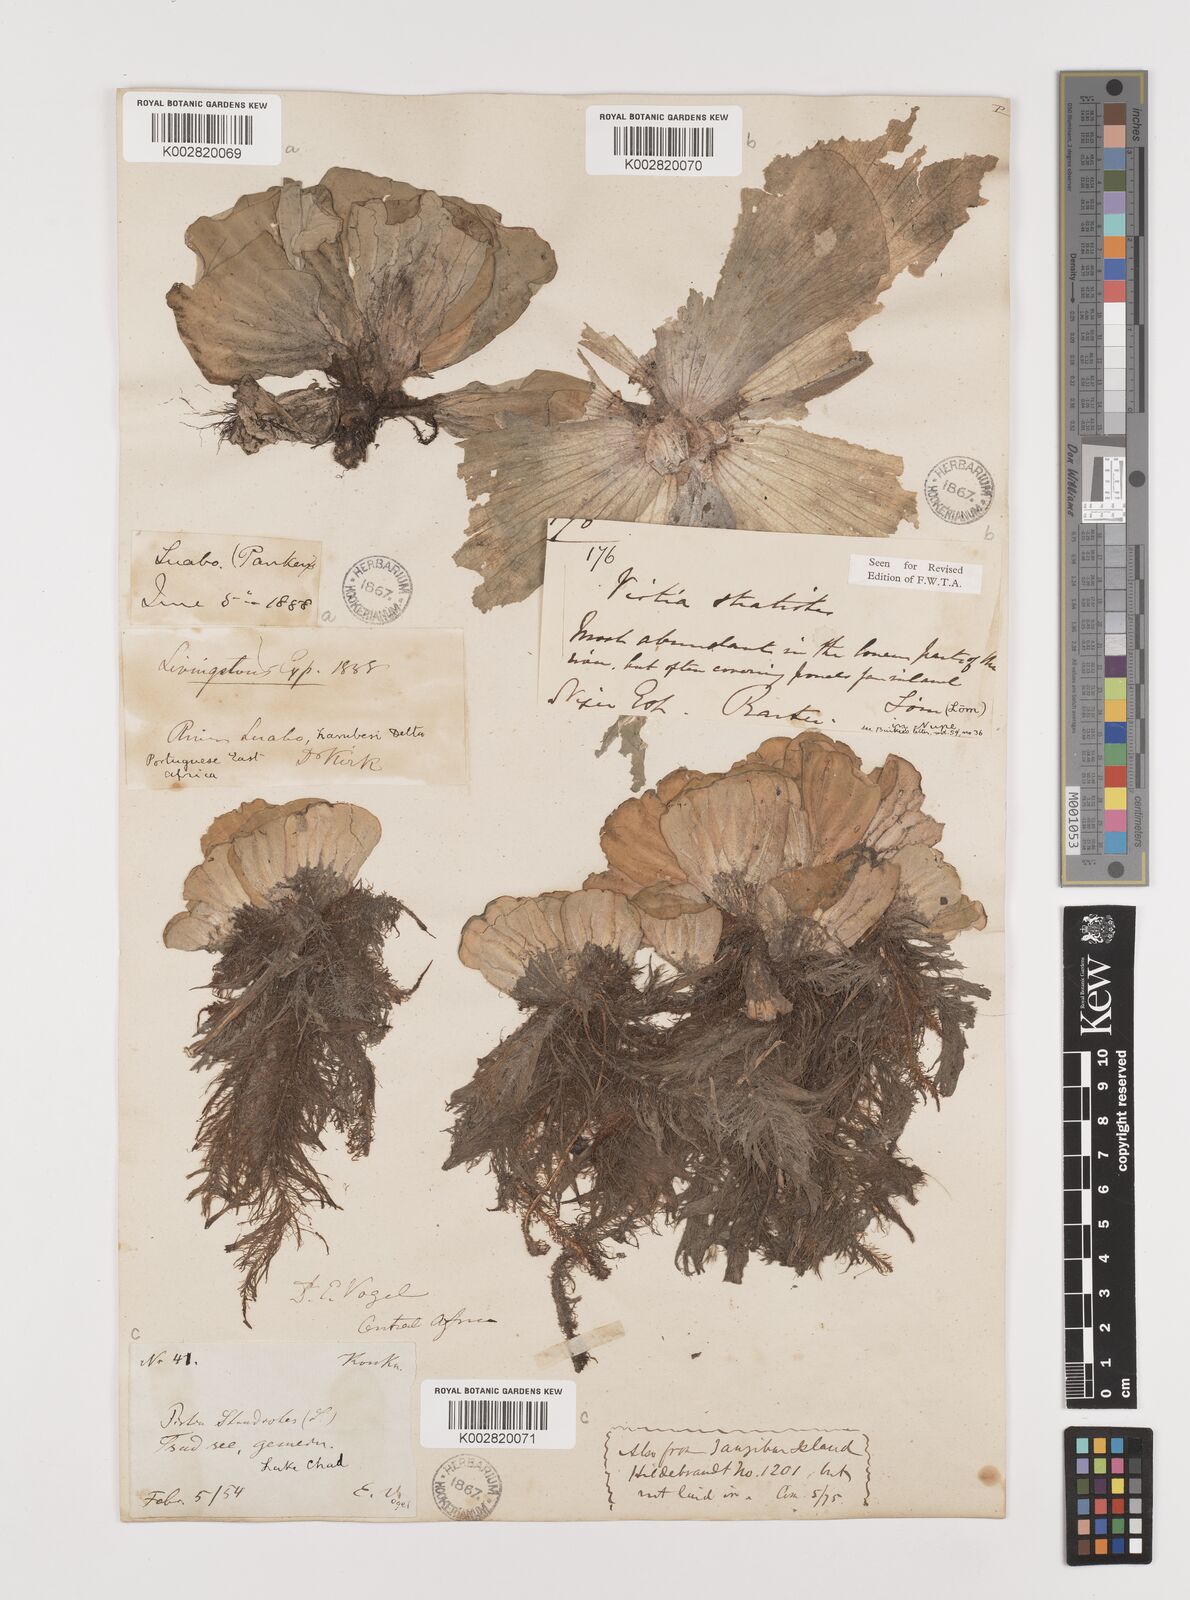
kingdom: Plantae
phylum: Tracheophyta
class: Liliopsida
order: Alismatales
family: Araceae
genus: Pistia
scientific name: Pistia stratiotes
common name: Water lettuce
